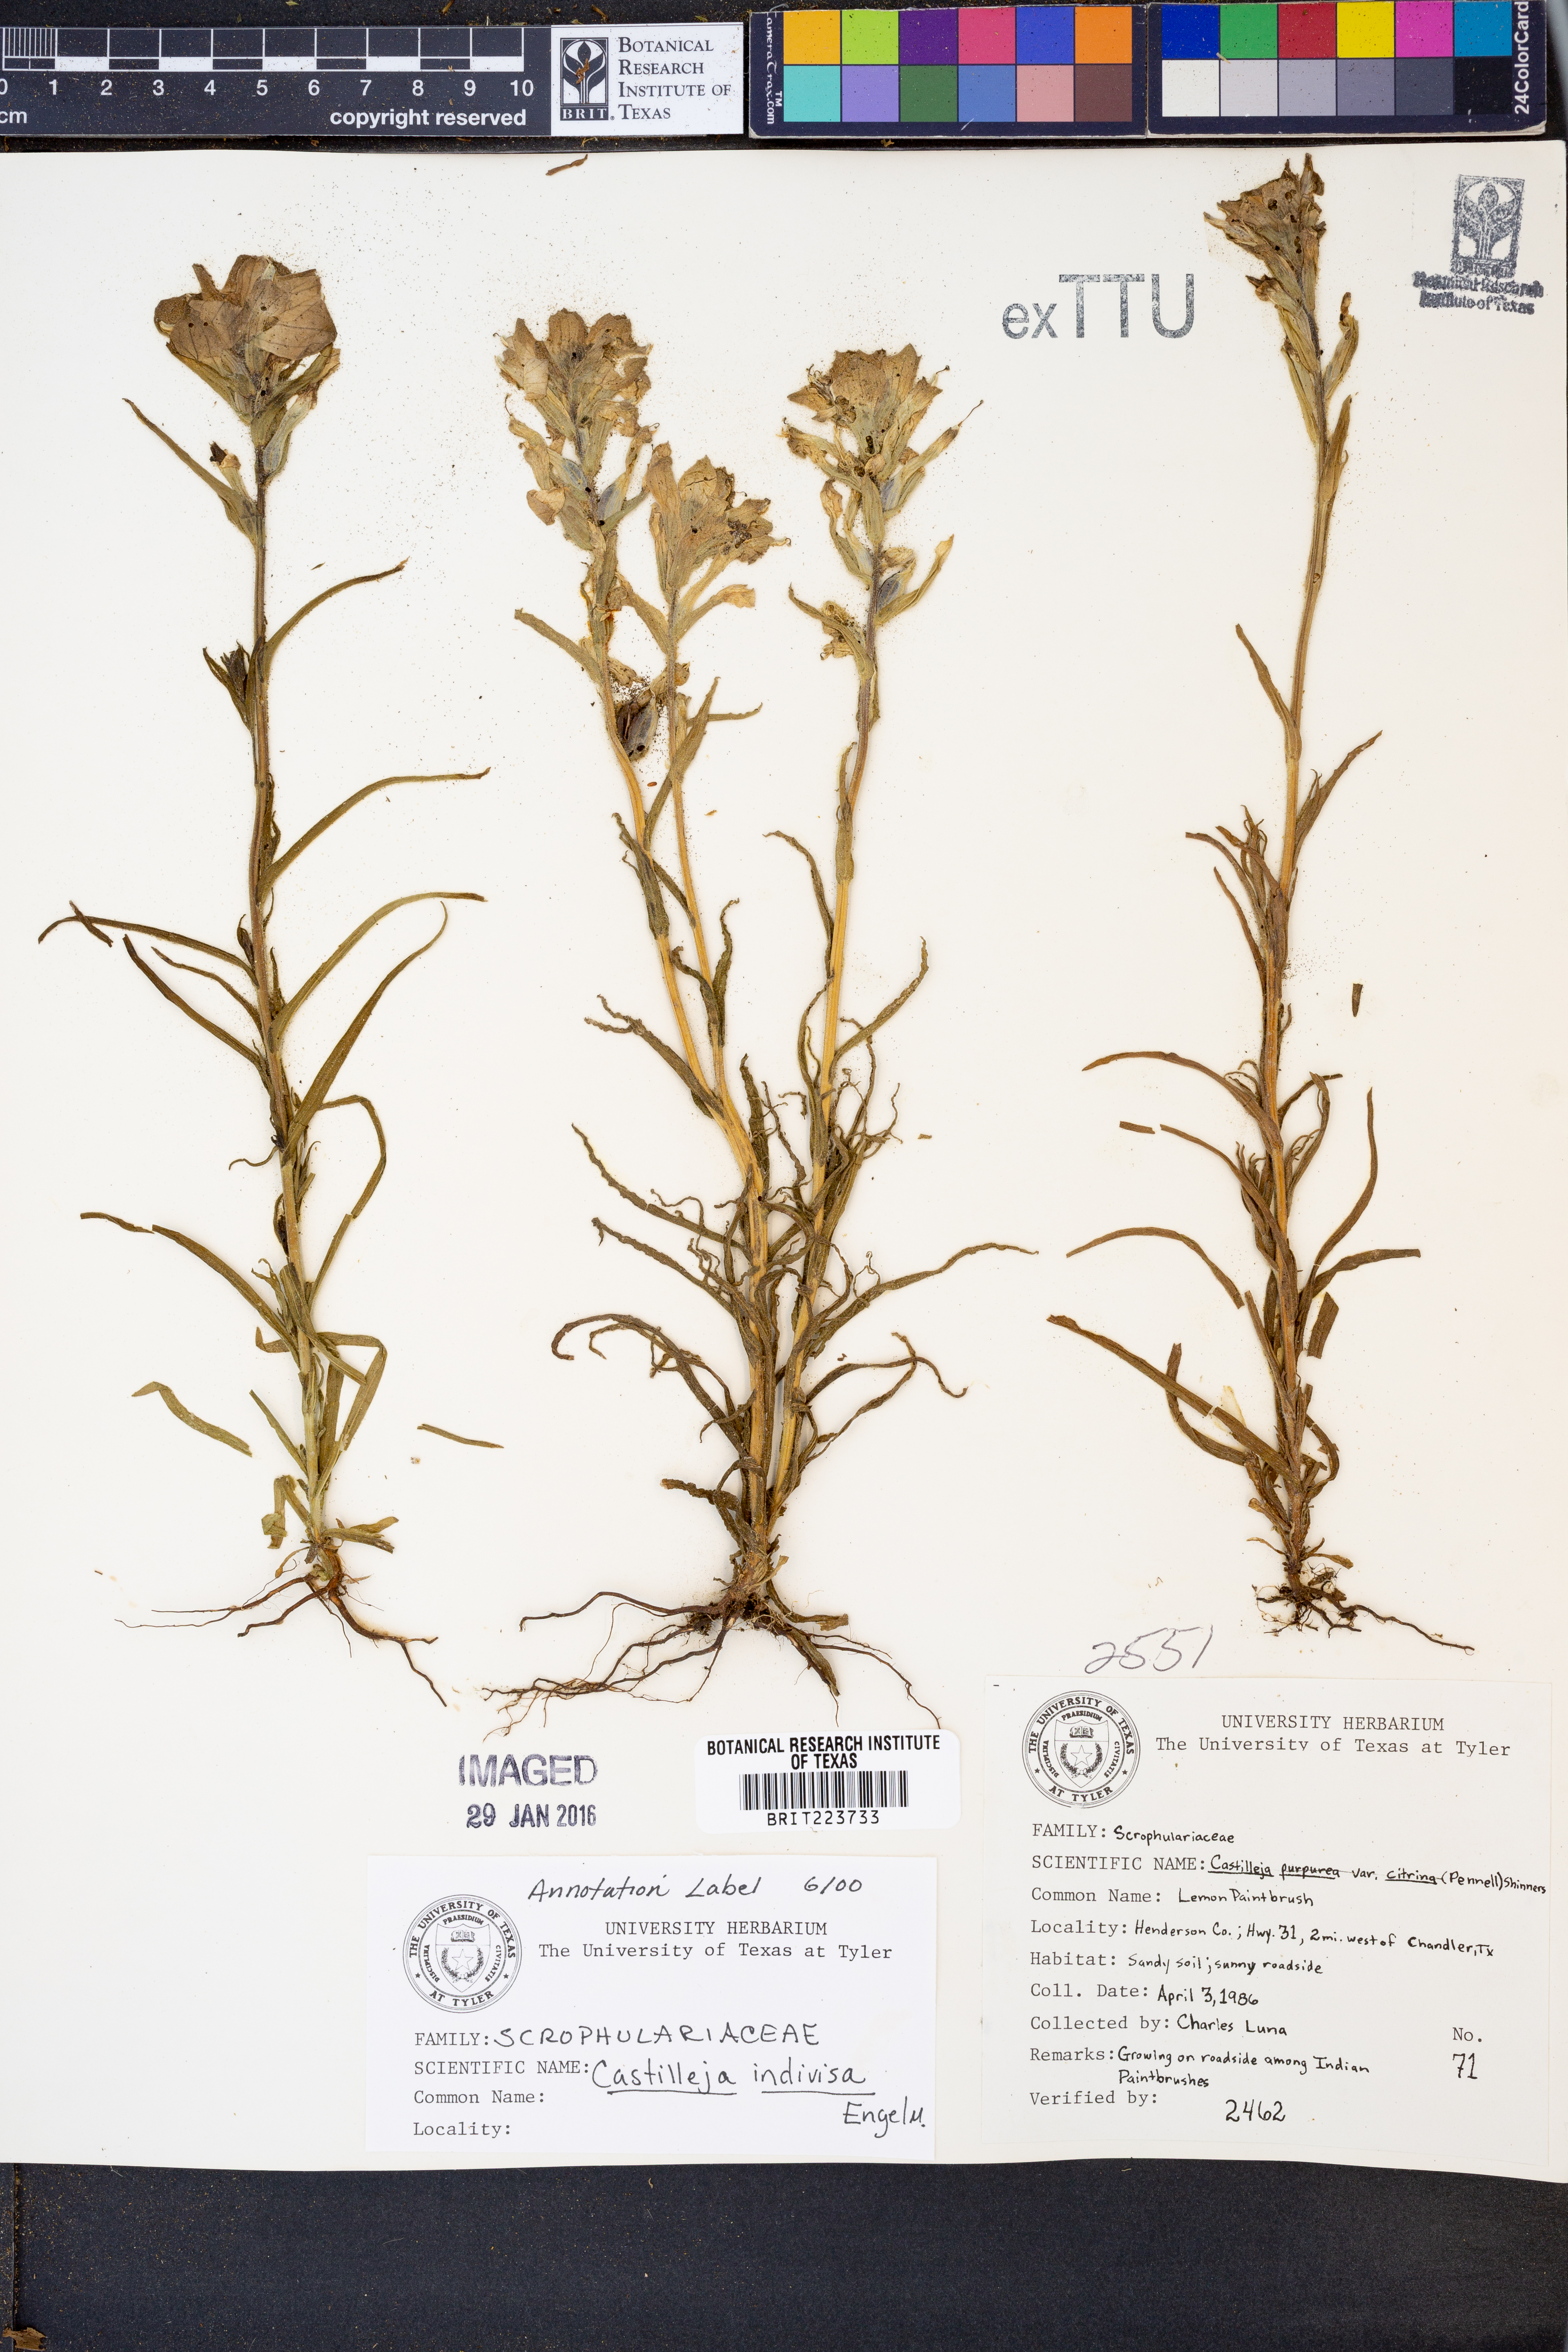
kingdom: Plantae
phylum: Tracheophyta
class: Magnoliopsida
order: Lamiales
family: Orobanchaceae
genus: Castilleja
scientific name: Castilleja indivisa
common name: Texas paintbrush
